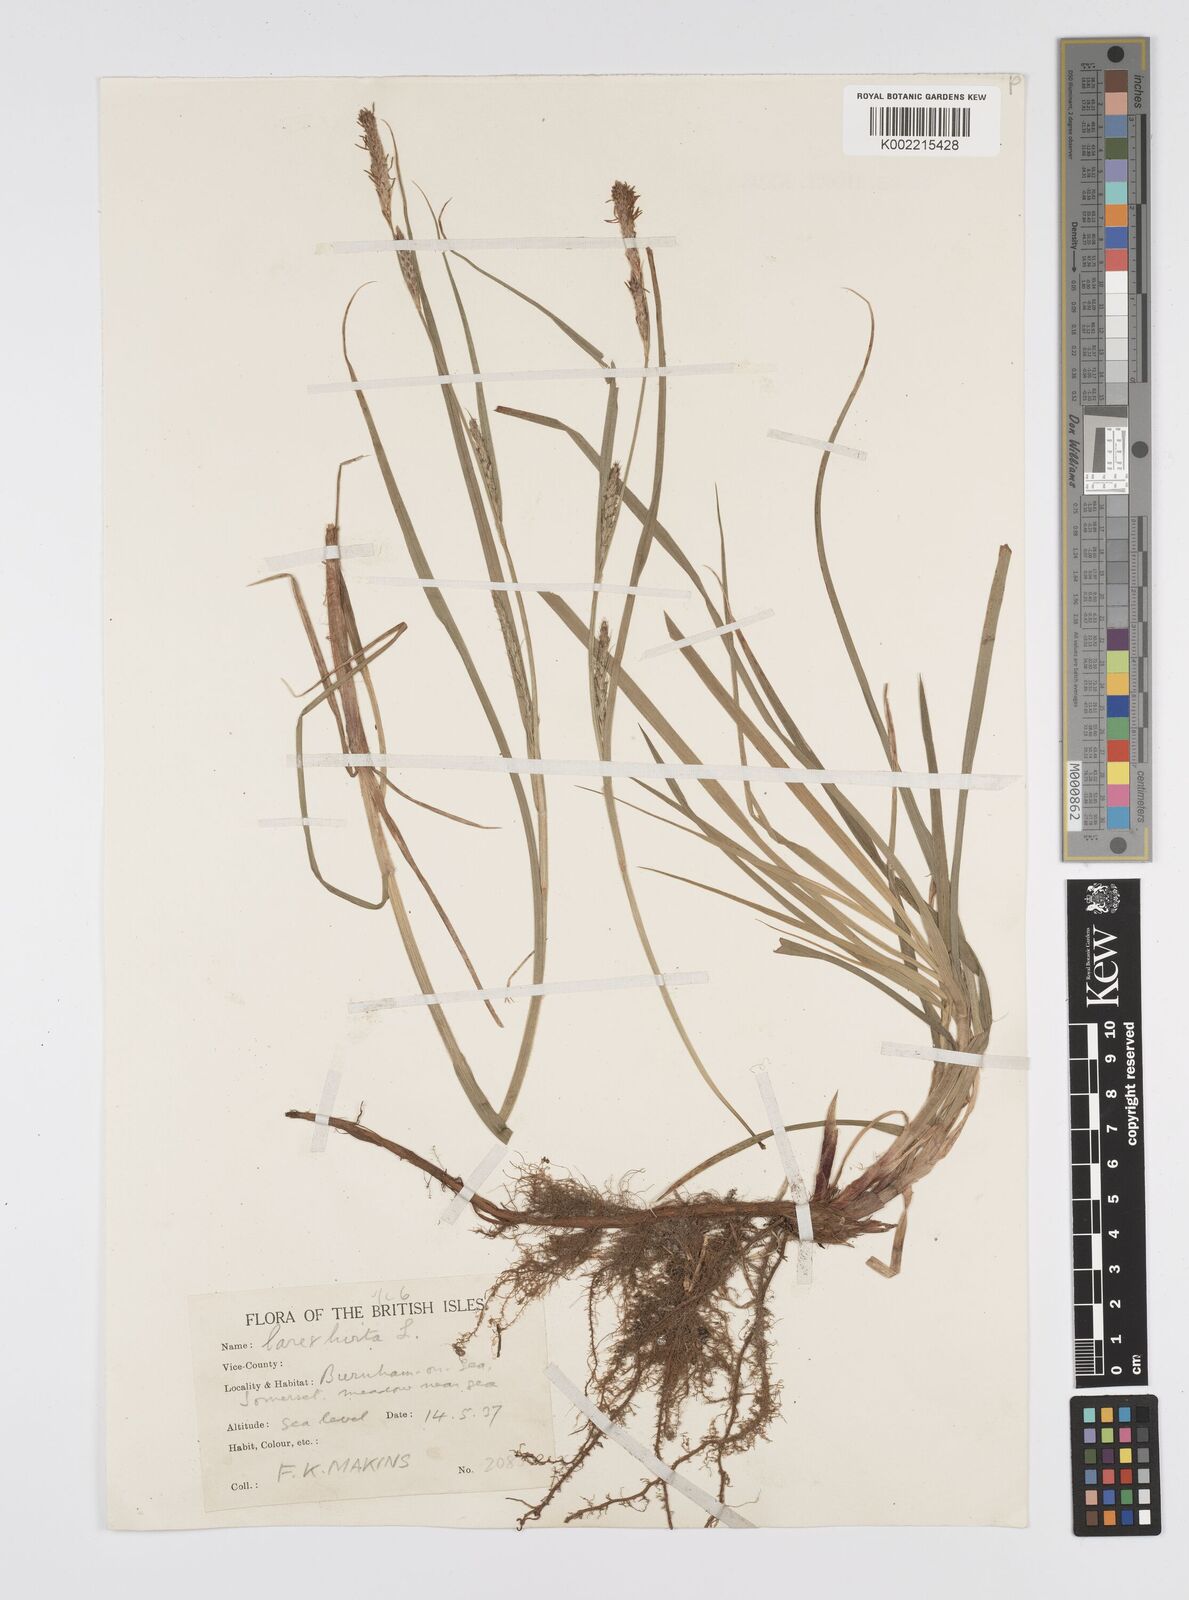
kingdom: Plantae
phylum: Tracheophyta
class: Liliopsida
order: Poales
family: Cyperaceae
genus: Carex
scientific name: Carex hirta
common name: Hairy sedge
